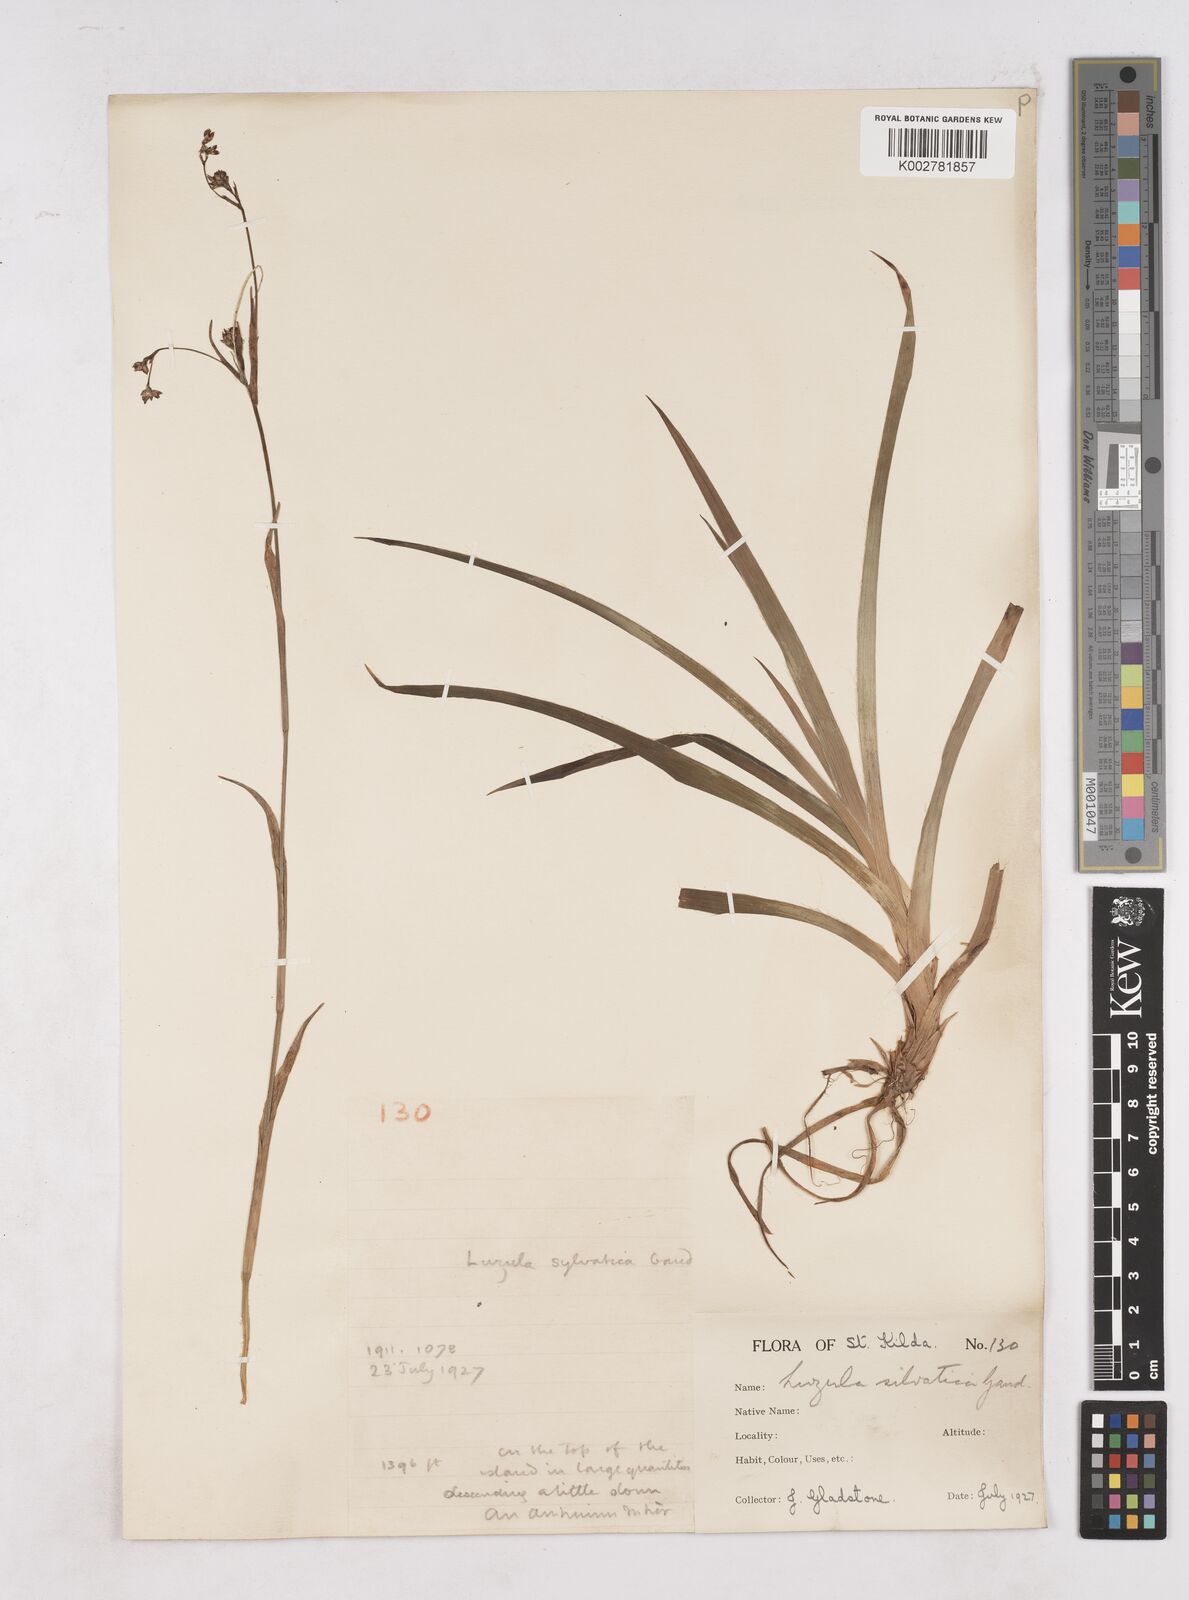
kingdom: Plantae
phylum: Tracheophyta
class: Liliopsida
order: Poales
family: Juncaceae
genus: Luzula
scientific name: Luzula sylvatica
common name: Great wood-rush
